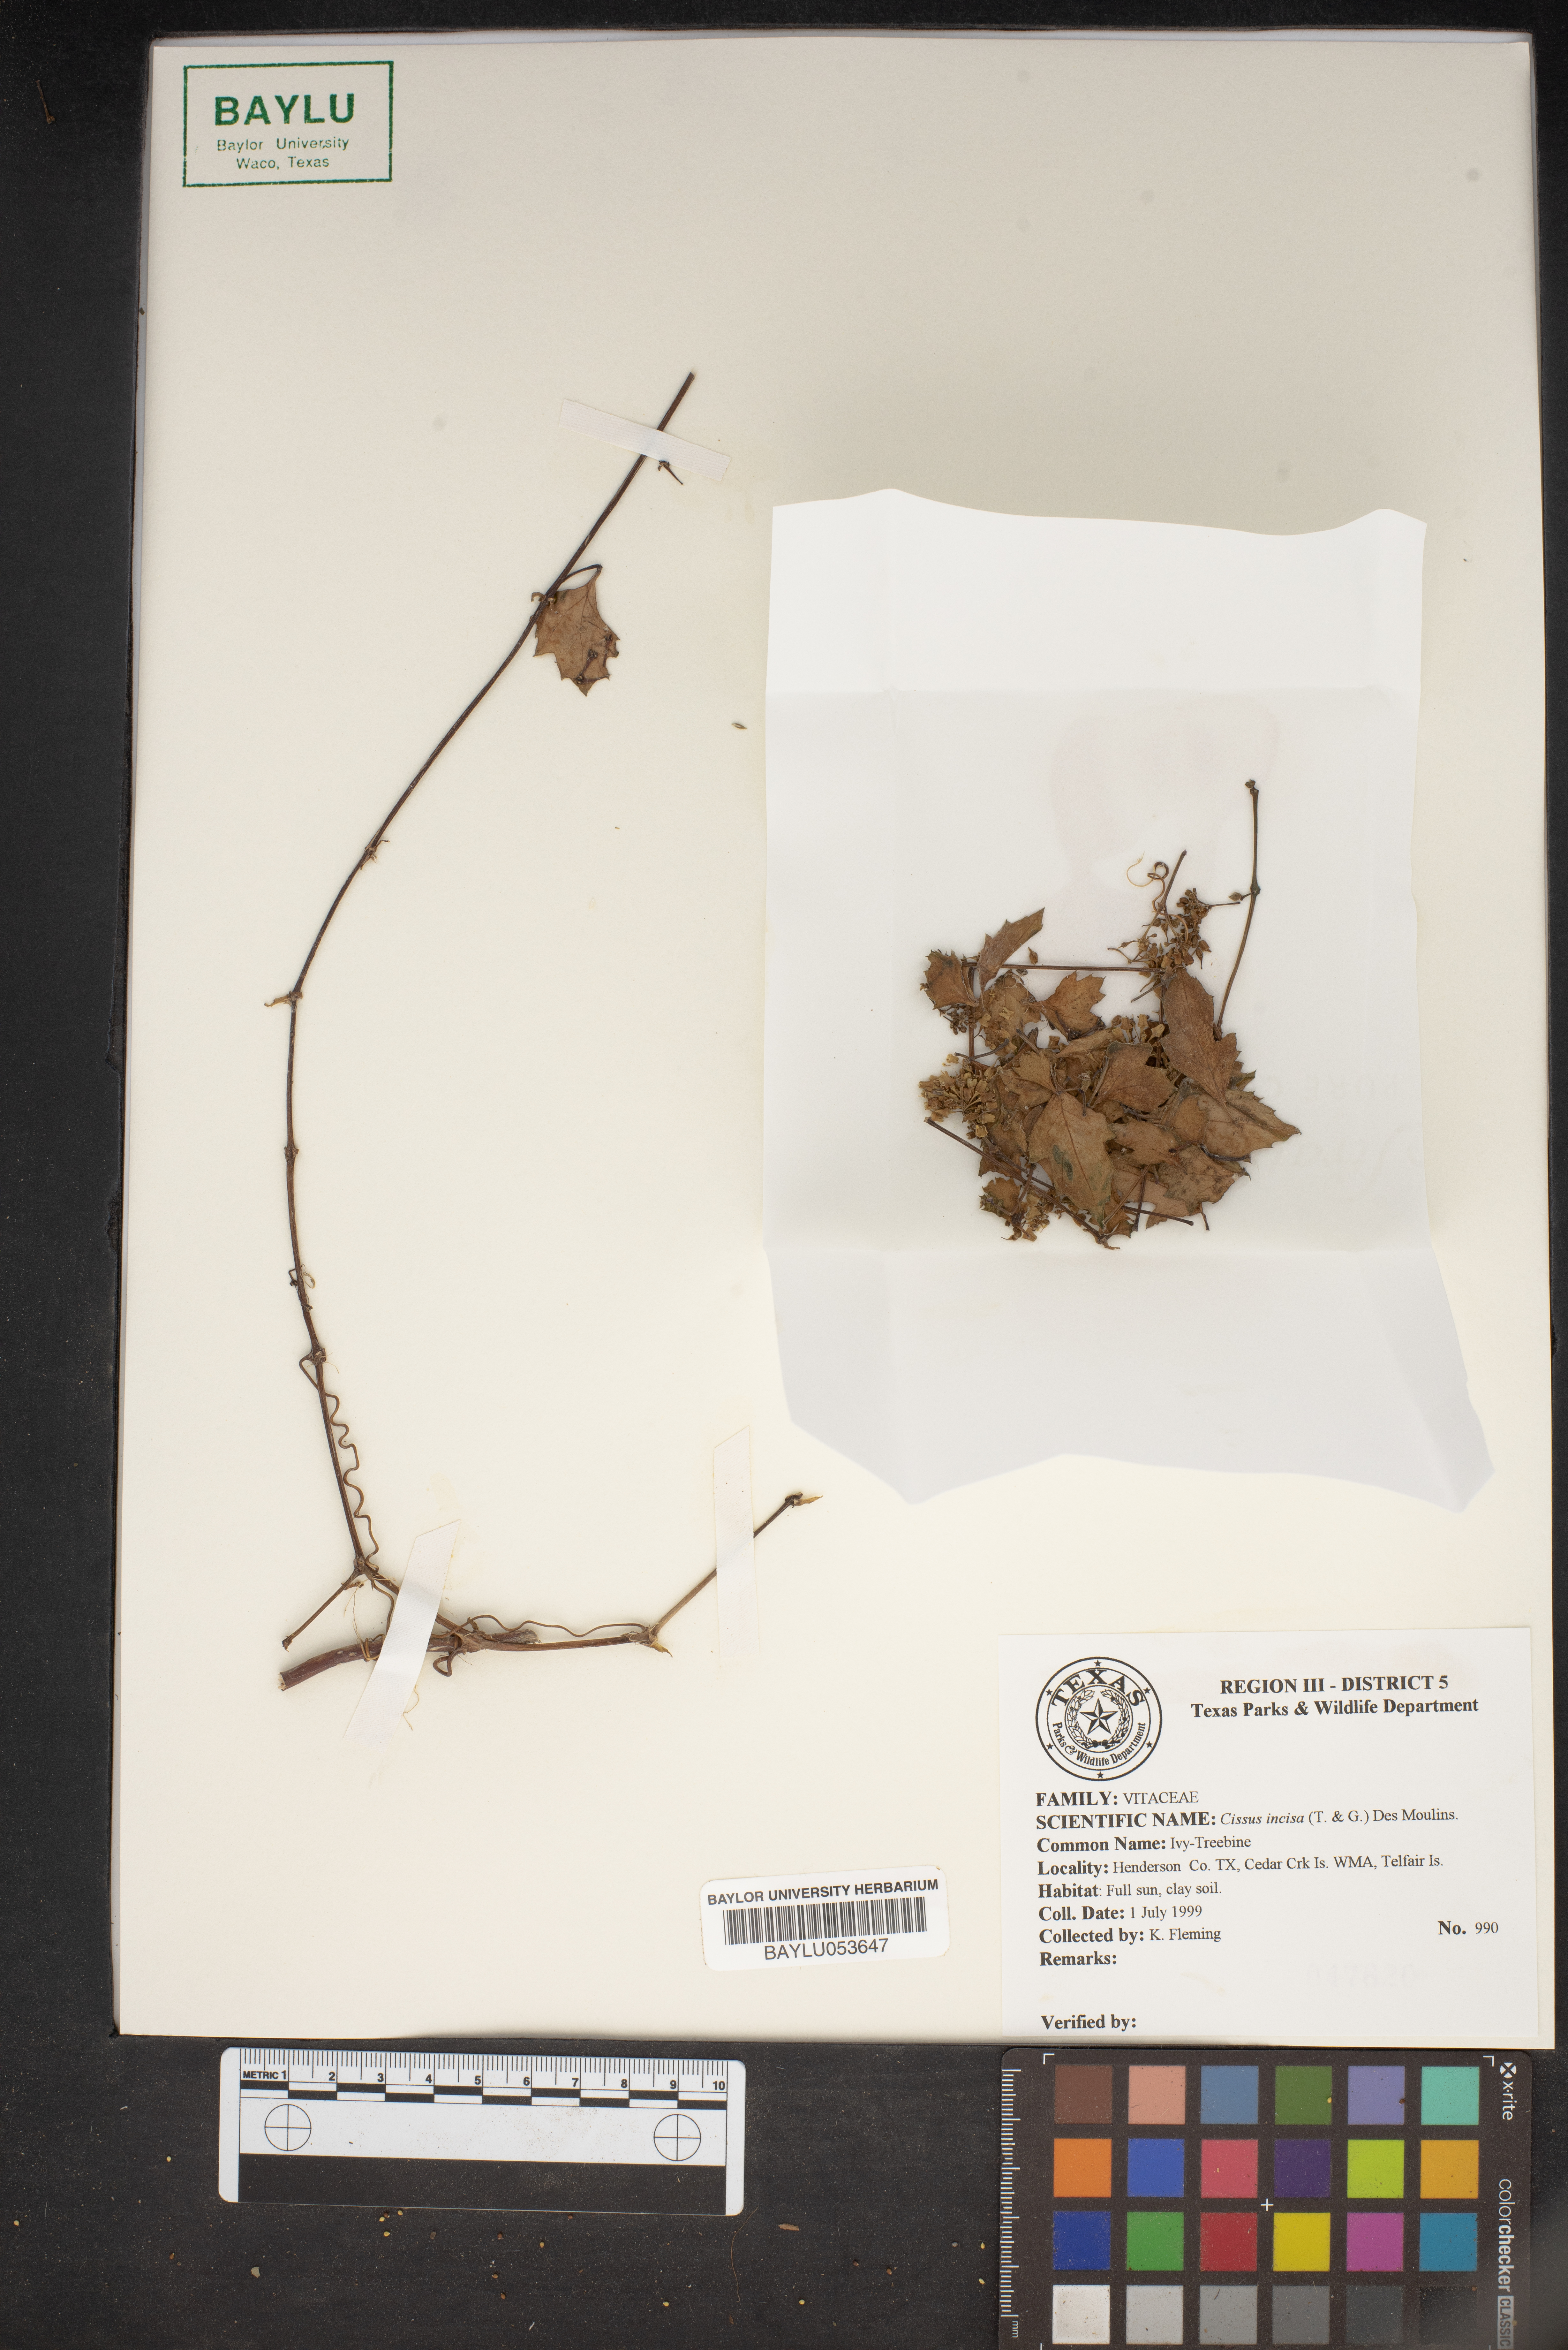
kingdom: Plantae
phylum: Tracheophyta
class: Magnoliopsida
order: Vitales
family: Vitaceae
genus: Cissus
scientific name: Cissus trifoliata
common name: Vine-sorrel
